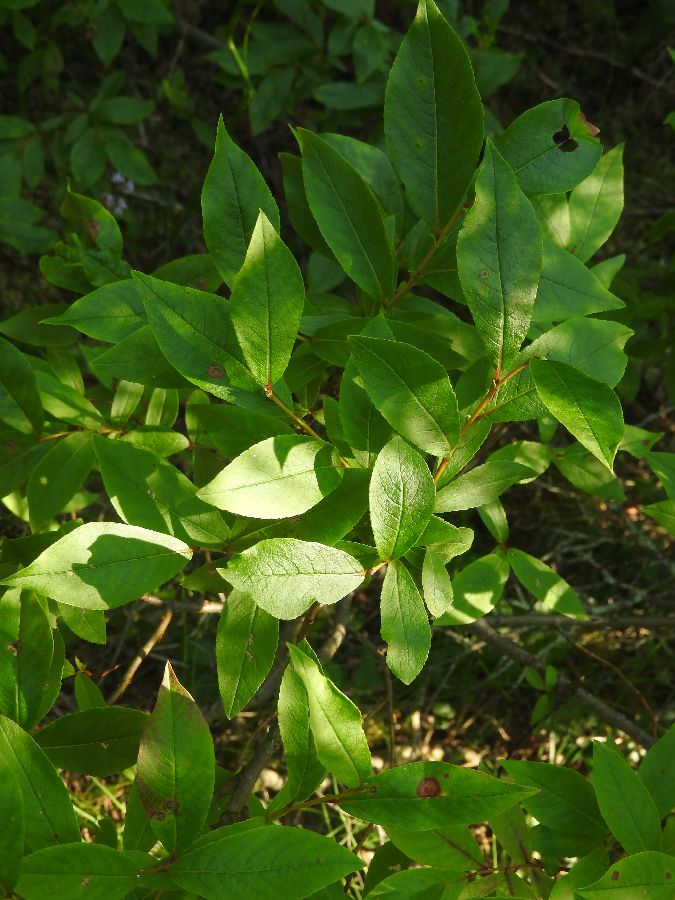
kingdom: Plantae
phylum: Tracheophyta
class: Magnoliopsida
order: Malpighiales
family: Salicaceae
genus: Salix
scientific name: Salix hastata
